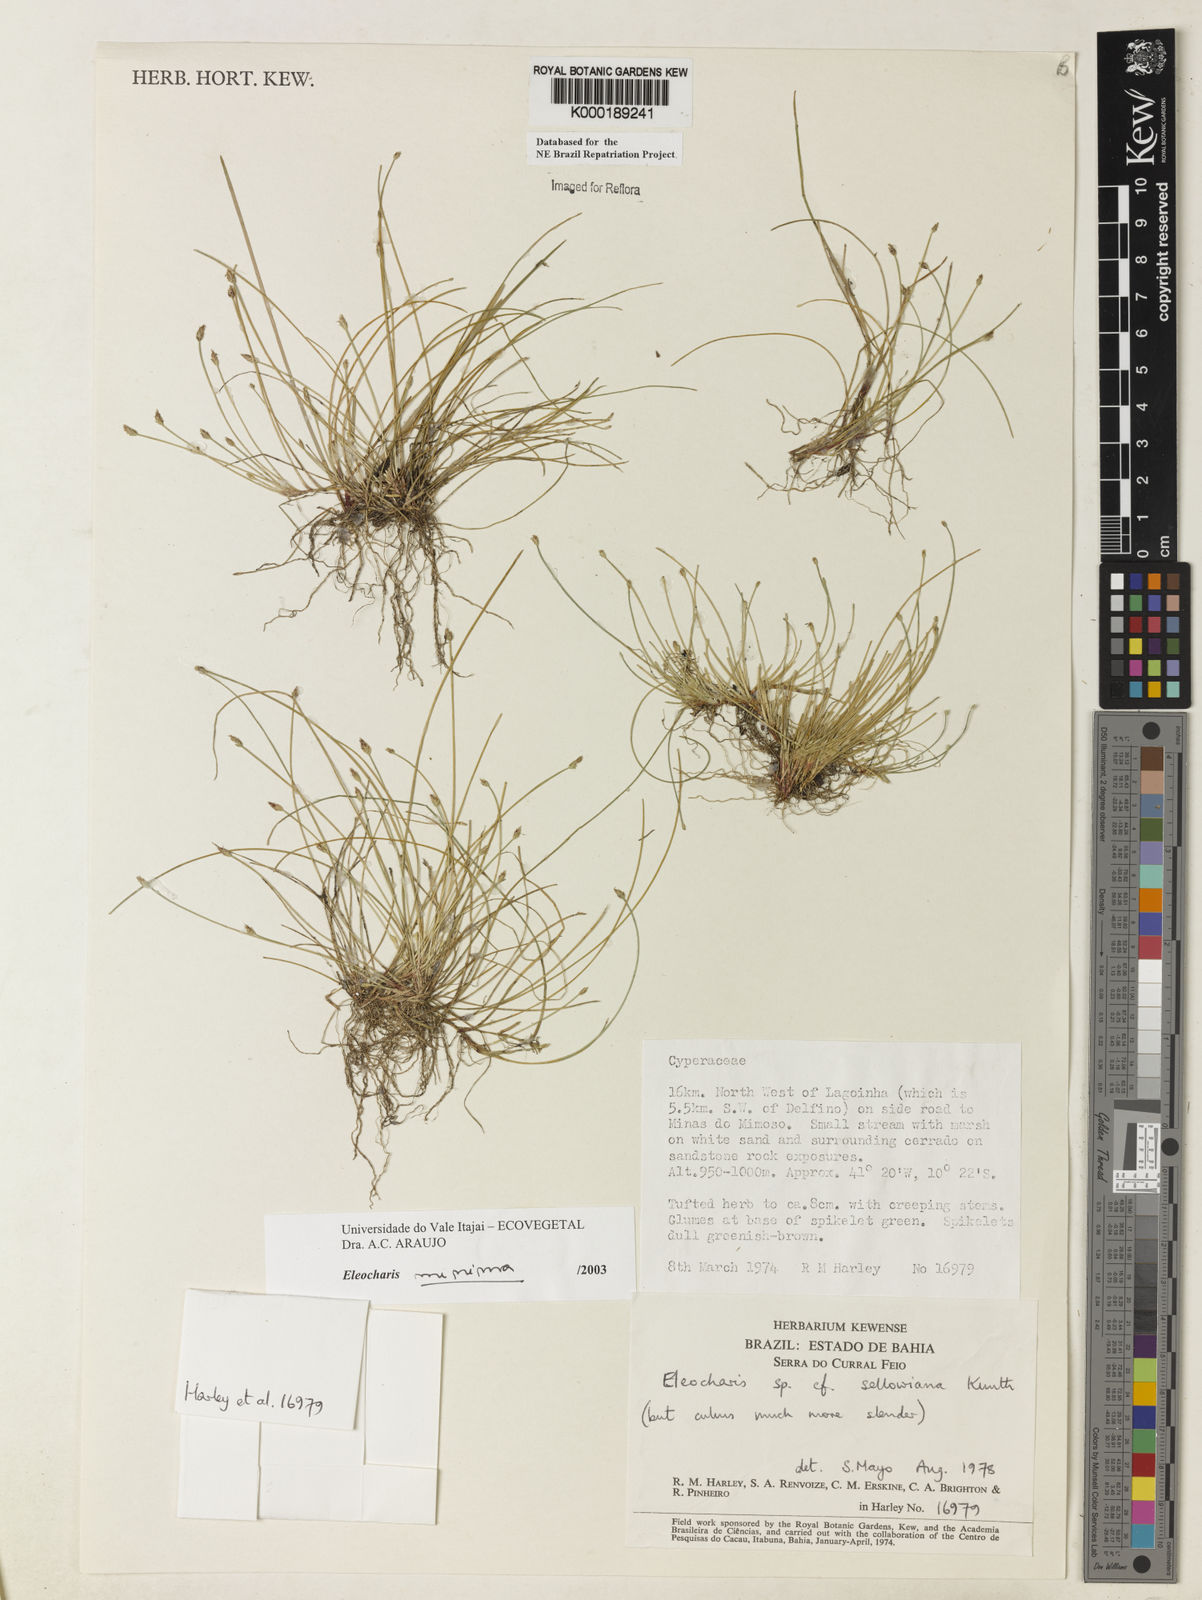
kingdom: Plantae
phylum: Tracheophyta
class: Liliopsida
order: Poales
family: Cyperaceae
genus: Eleocharis
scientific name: Eleocharis minima
